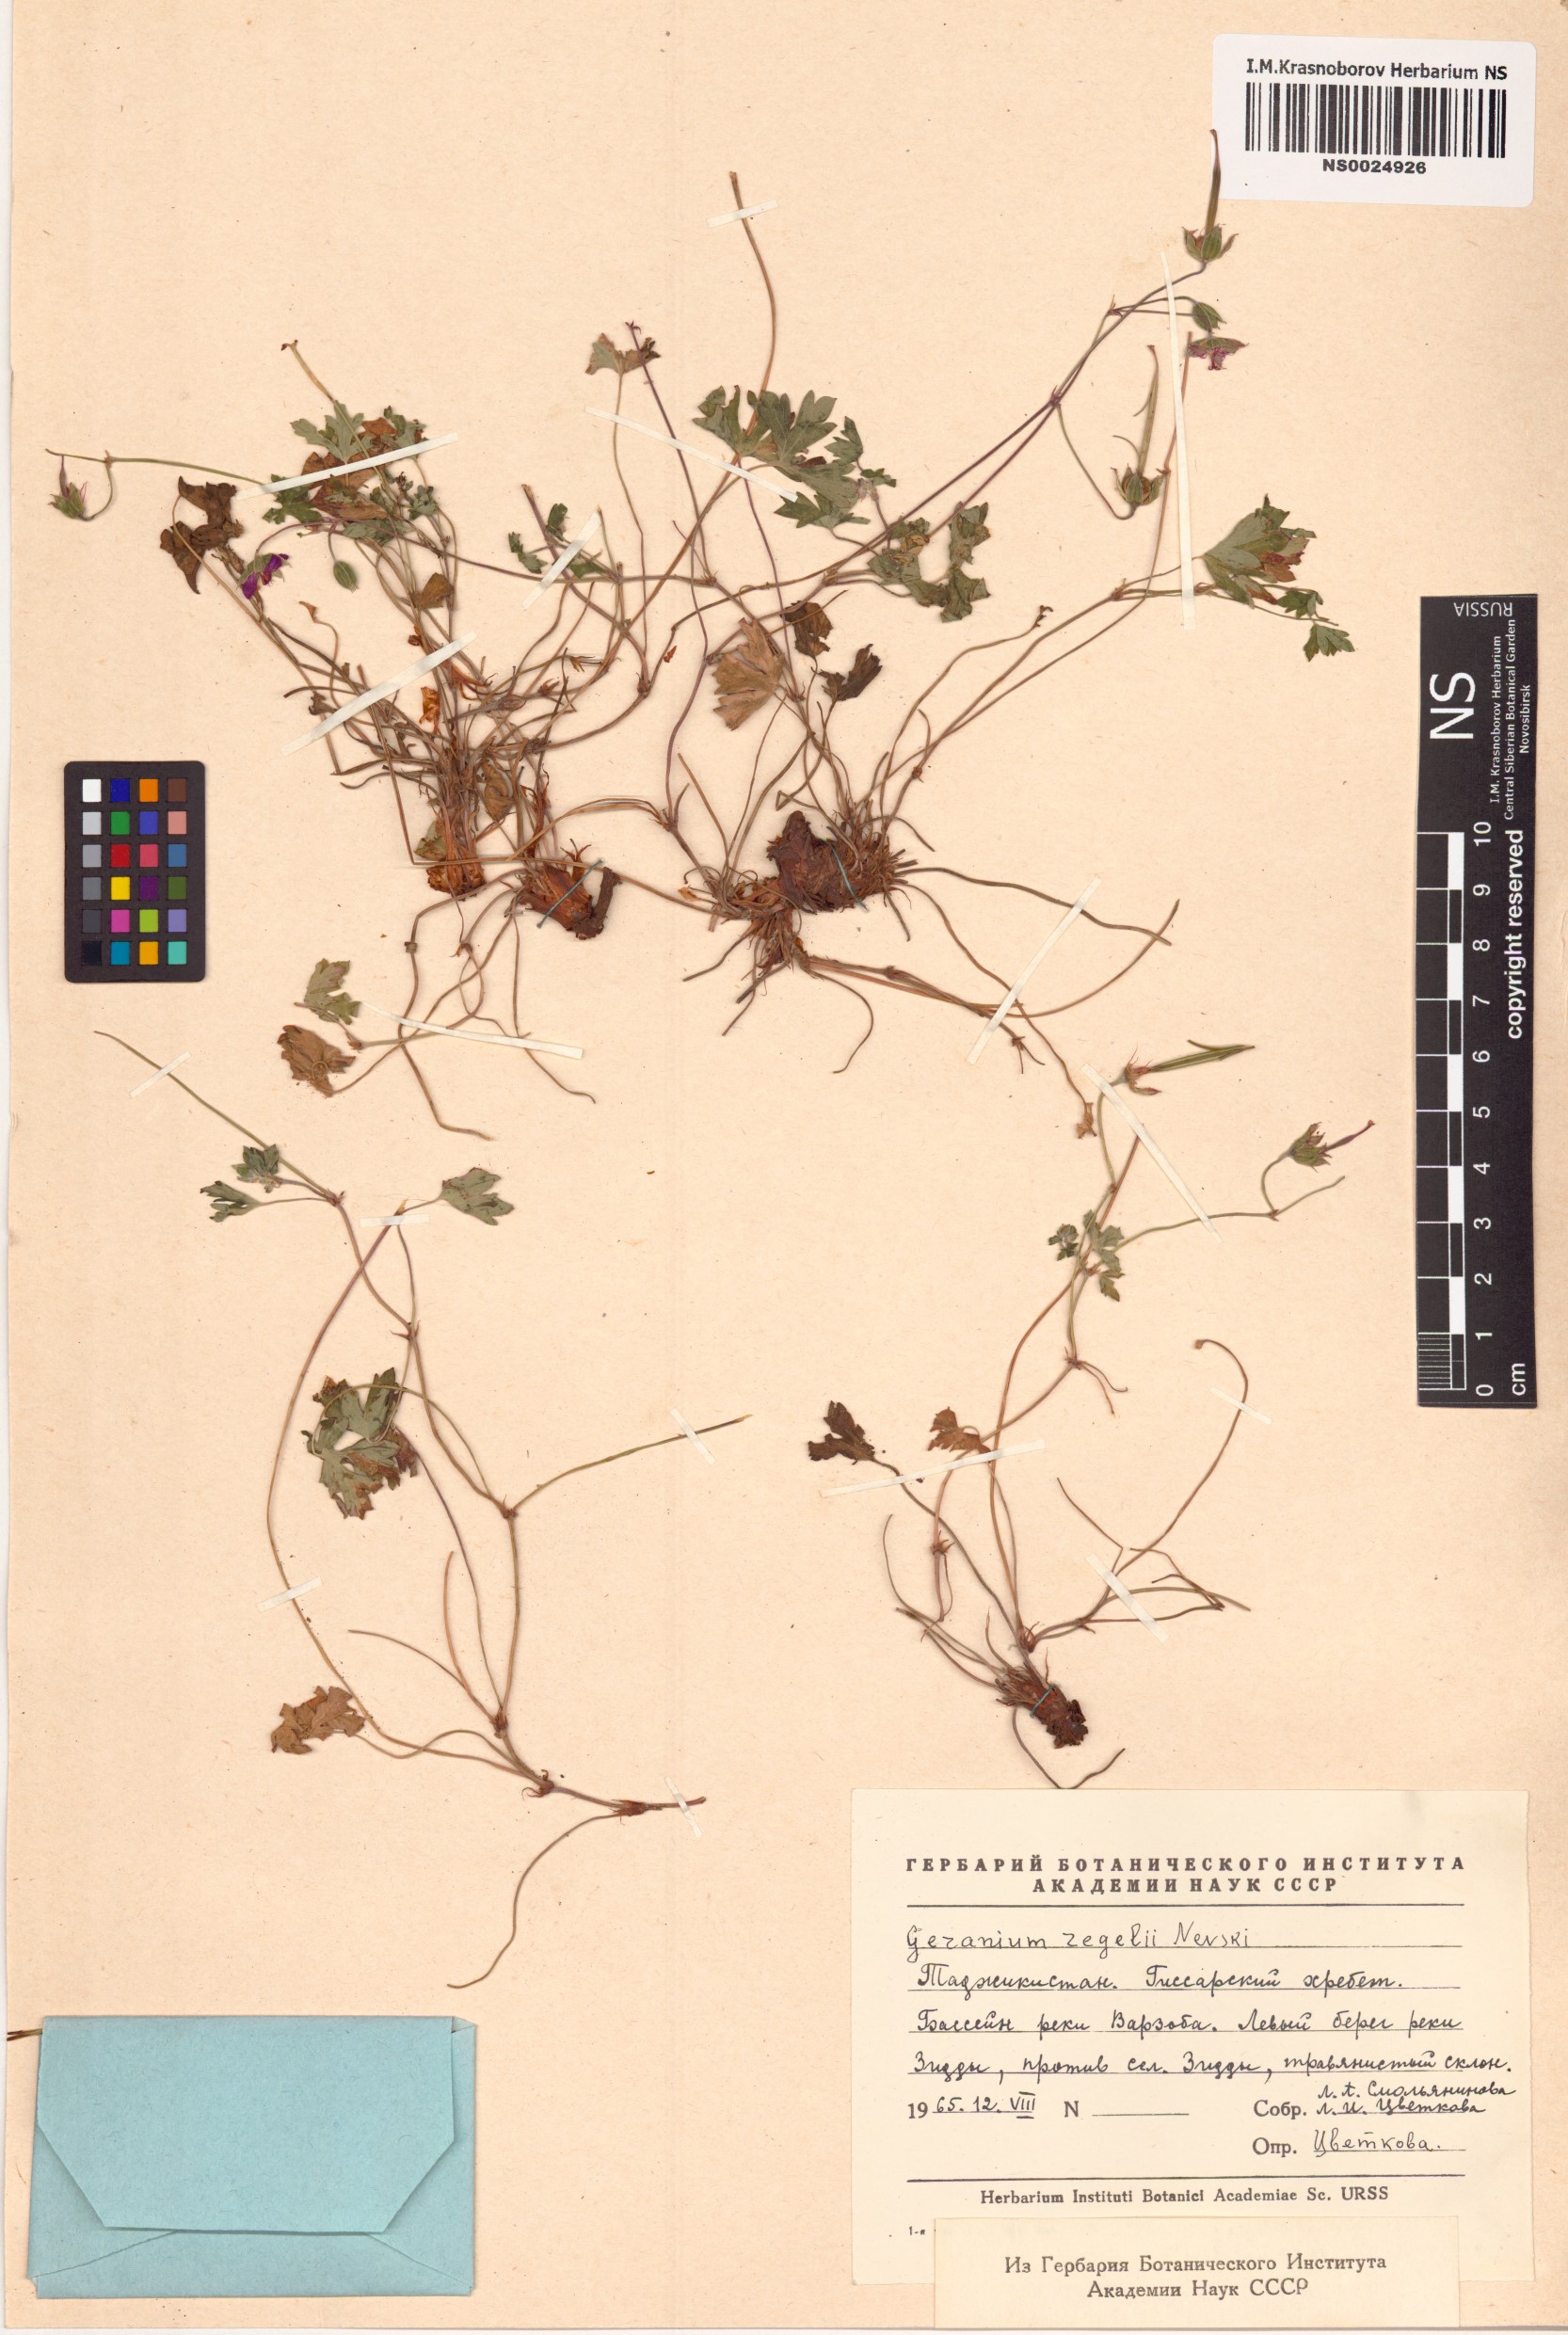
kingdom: Plantae
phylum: Tracheophyta
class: Magnoliopsida
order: Geraniales
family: Geraniaceae
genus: Geranium
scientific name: Geranium saxatile
